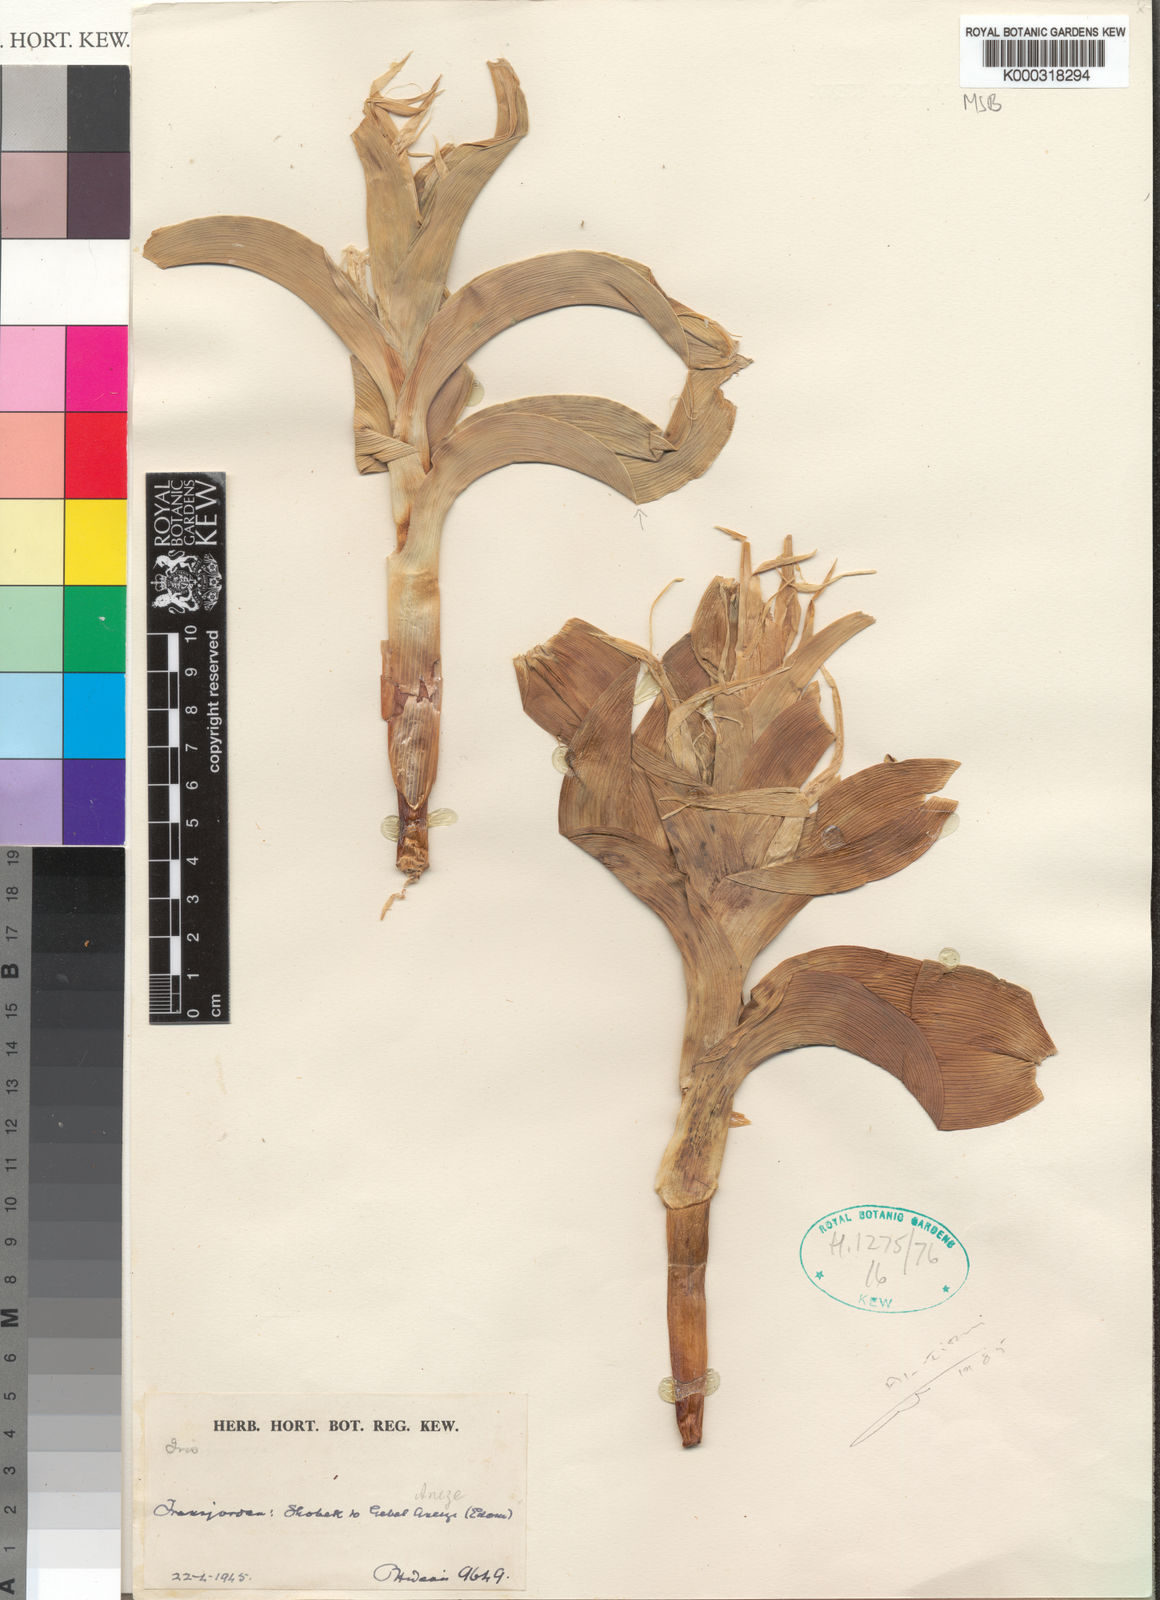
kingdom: Plantae
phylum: Tracheophyta
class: Magnoliopsida
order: Brassicales
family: Brassicaceae
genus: Matthiola
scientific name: Matthiola longipetala
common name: Night-scented stock
